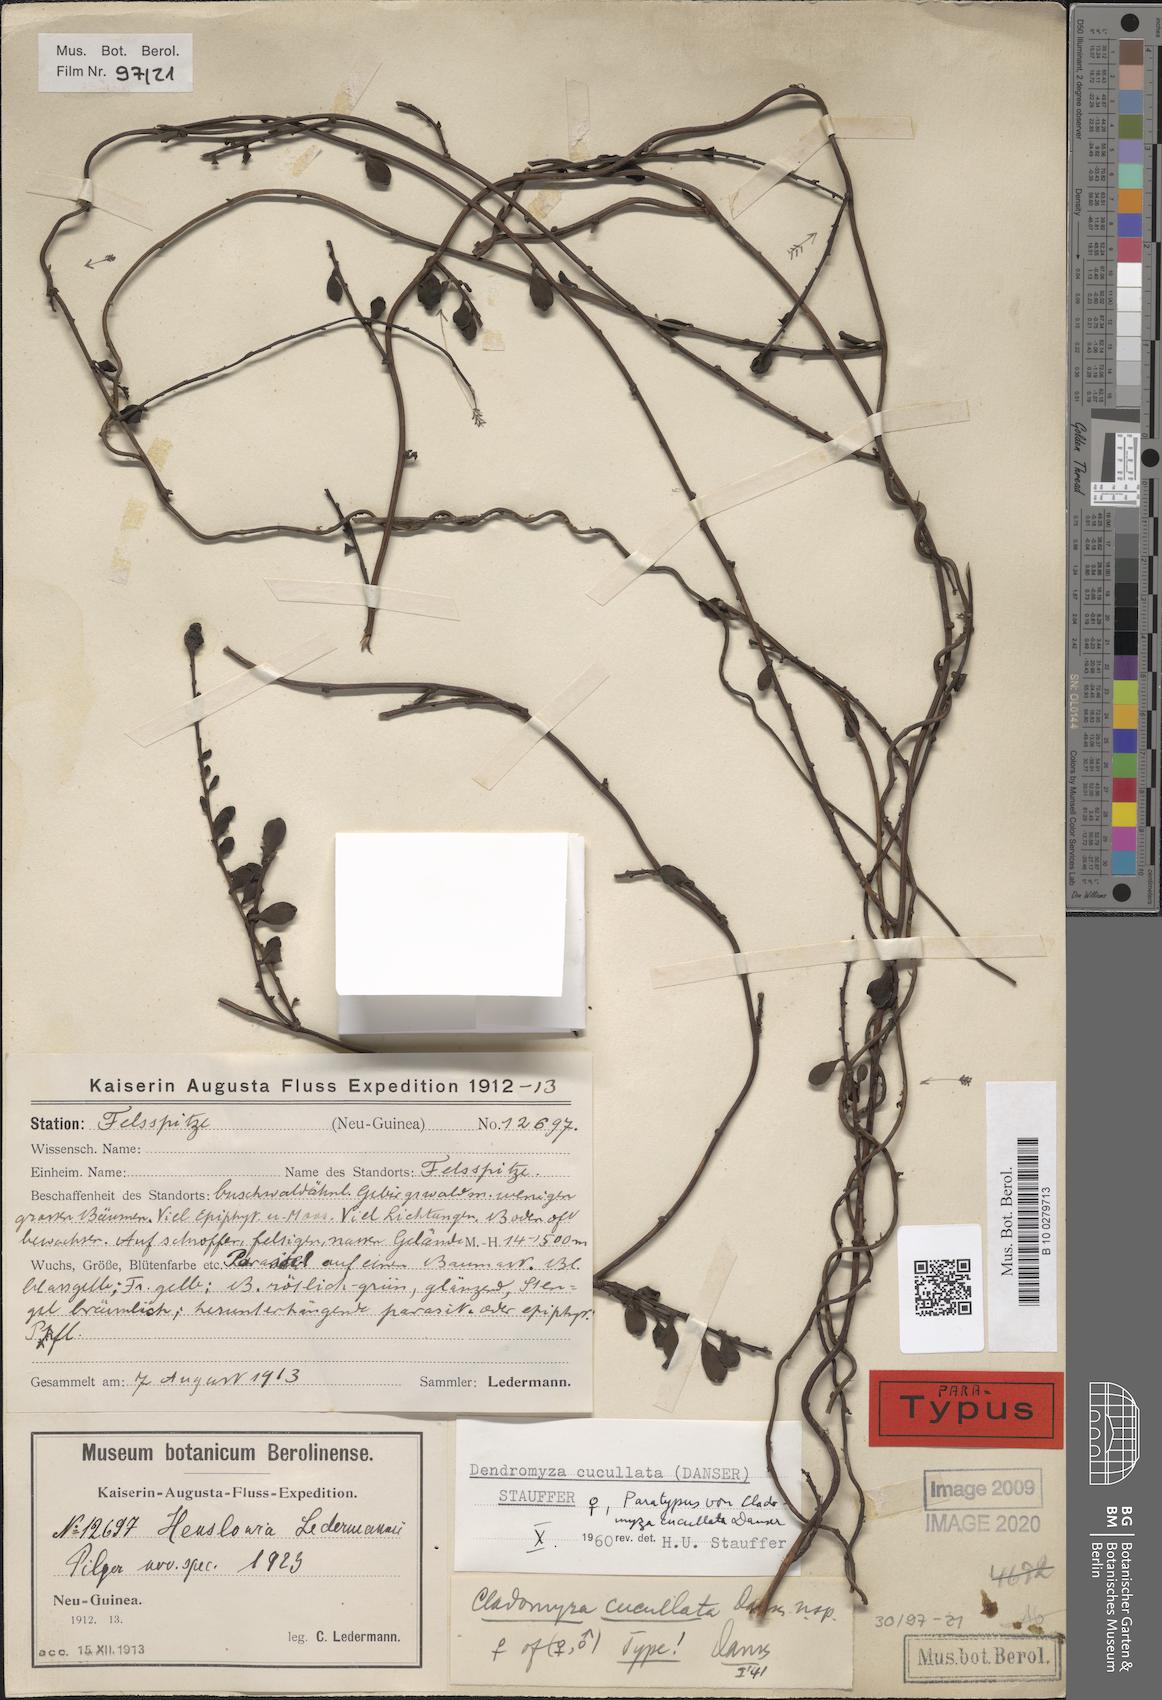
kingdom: Plantae
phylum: Tracheophyta
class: Magnoliopsida
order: Santalales
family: Amphorogynaceae
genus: Dendromyza
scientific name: Dendromyza cucullata
